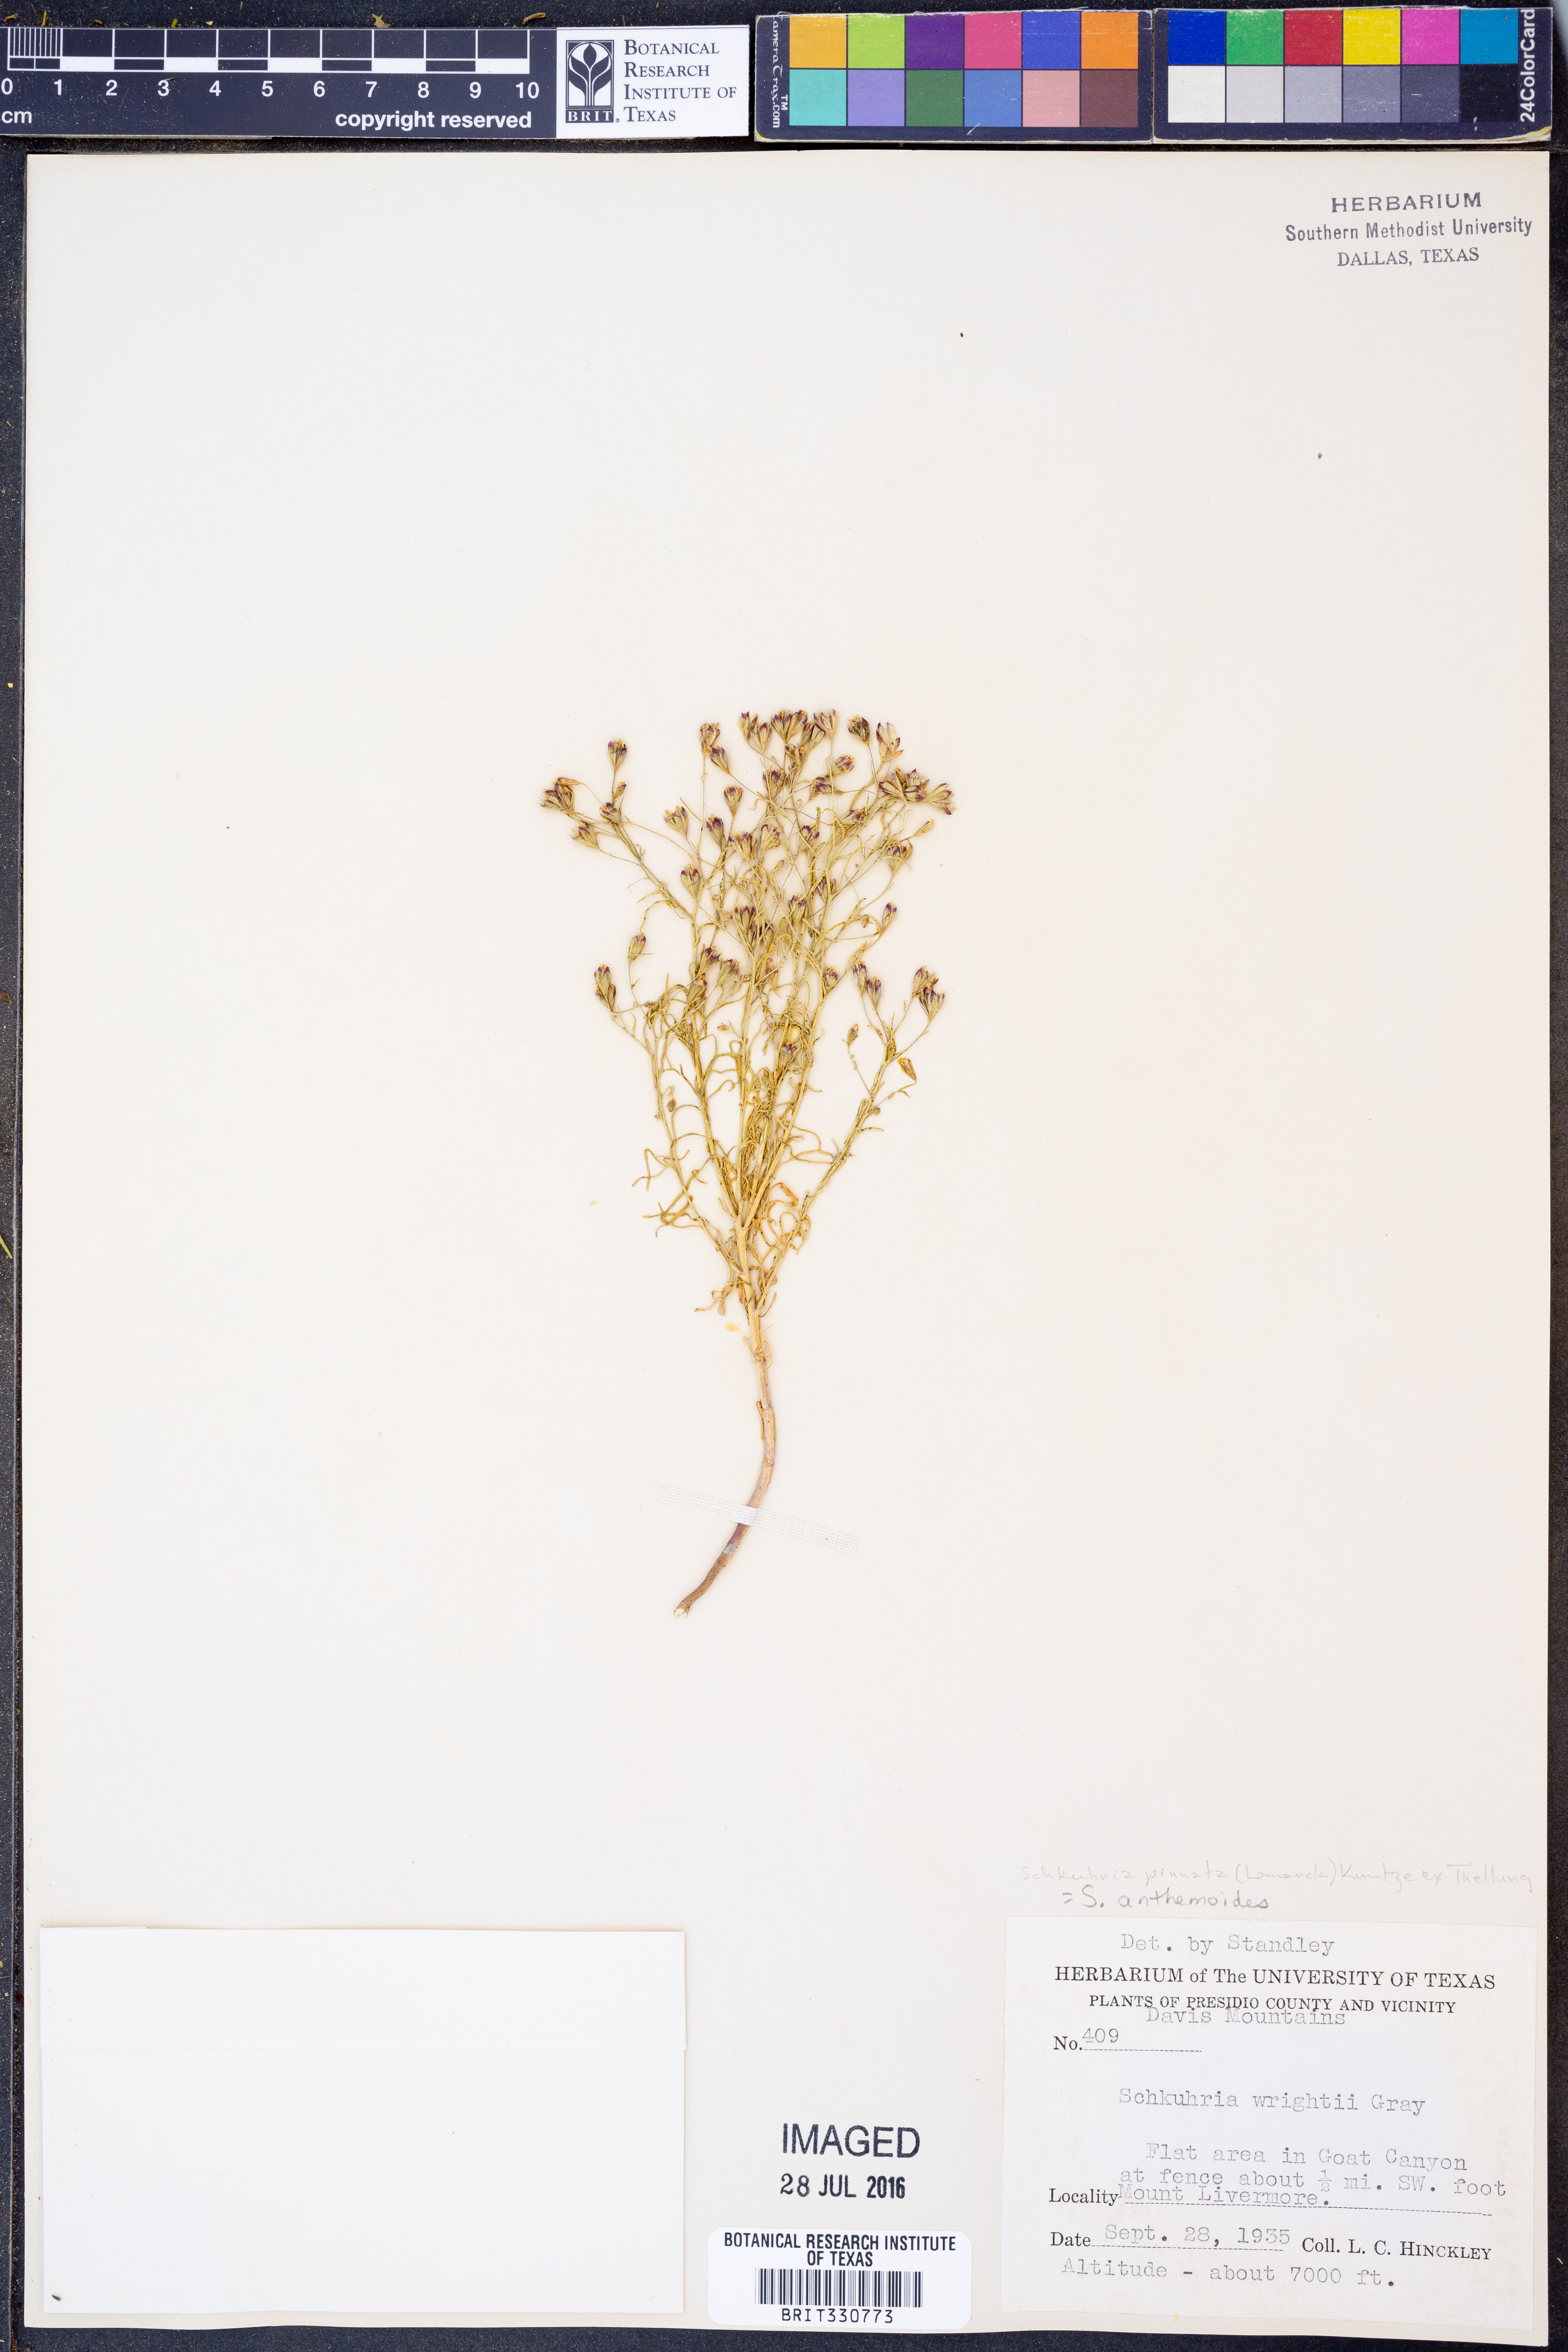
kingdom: Plantae
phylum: Tracheophyta
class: Magnoliopsida
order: Asterales
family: Asteraceae
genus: Schkuhria
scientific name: Schkuhria pinnata
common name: Dwarf marigold
